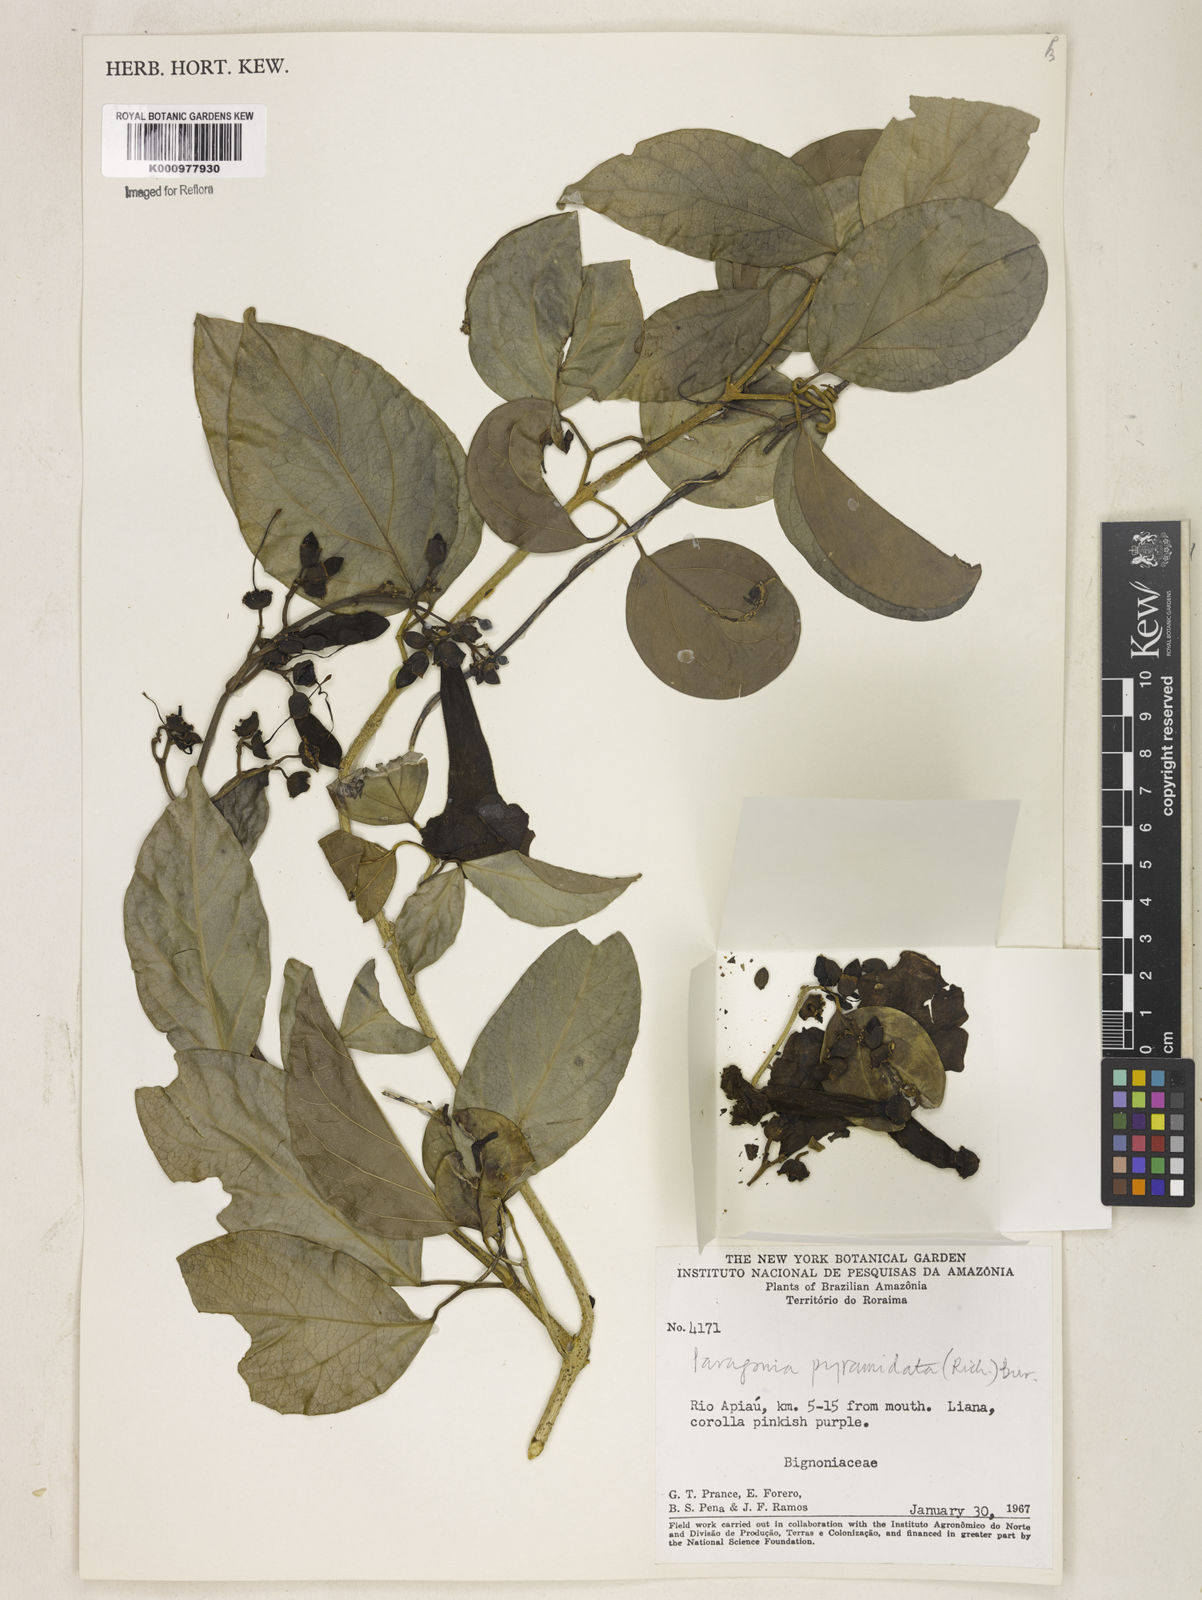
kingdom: Plantae
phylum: Tracheophyta
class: Magnoliopsida
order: Lamiales
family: Bignoniaceae
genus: Tanaecium
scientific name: Tanaecium pyramidatum
